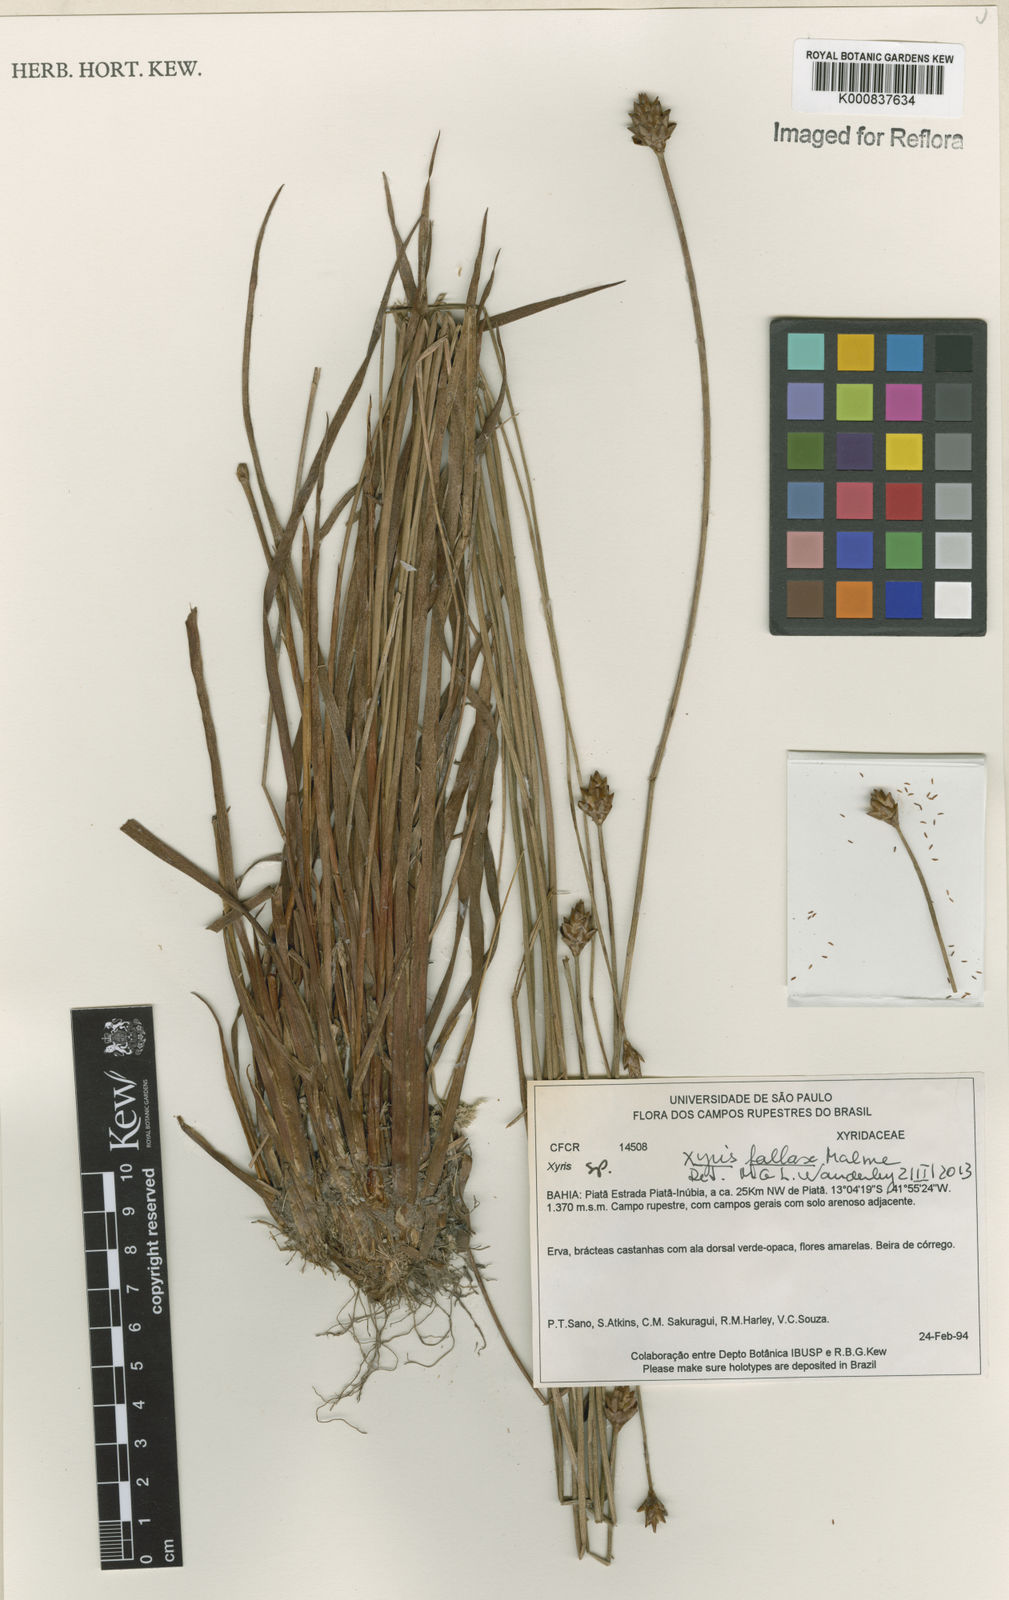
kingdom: Plantae
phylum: Tracheophyta
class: Liliopsida
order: Poales
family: Xyridaceae
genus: Xyris
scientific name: Xyris fallax
